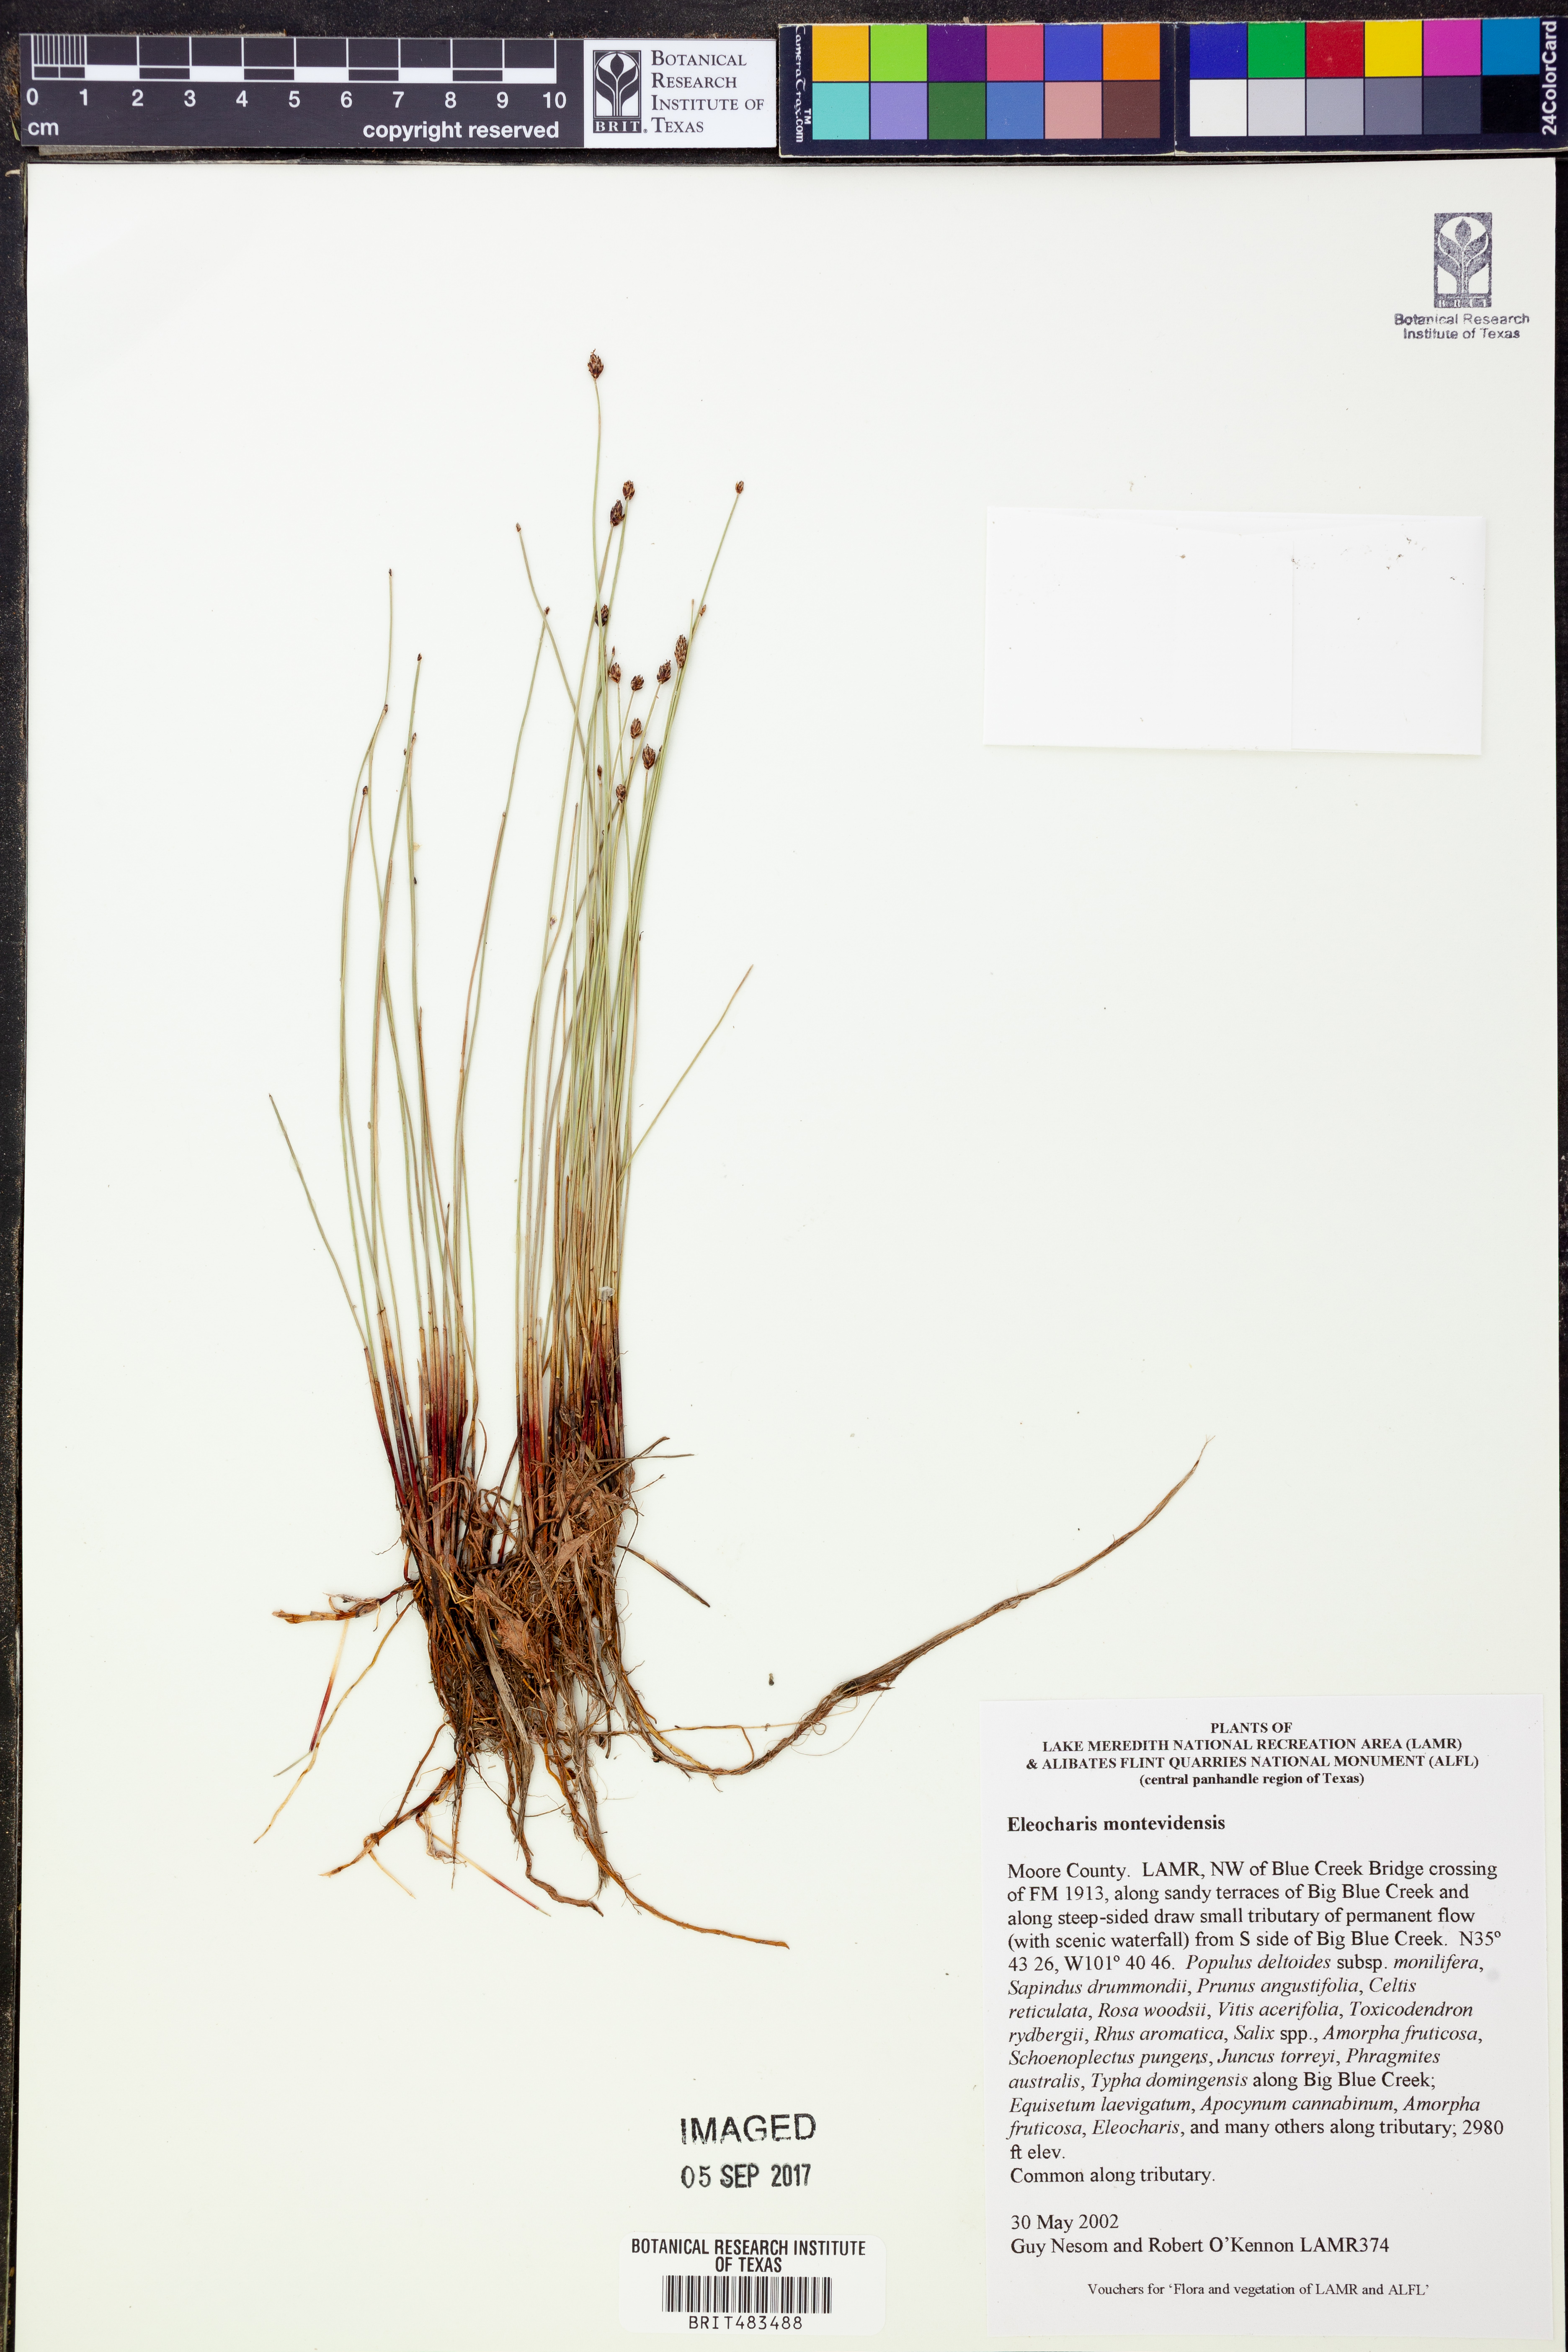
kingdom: Plantae
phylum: Tracheophyta
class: Liliopsida
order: Poales
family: Cyperaceae
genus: Eleocharis
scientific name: Eleocharis montevidensis
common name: Sand spike-rush
